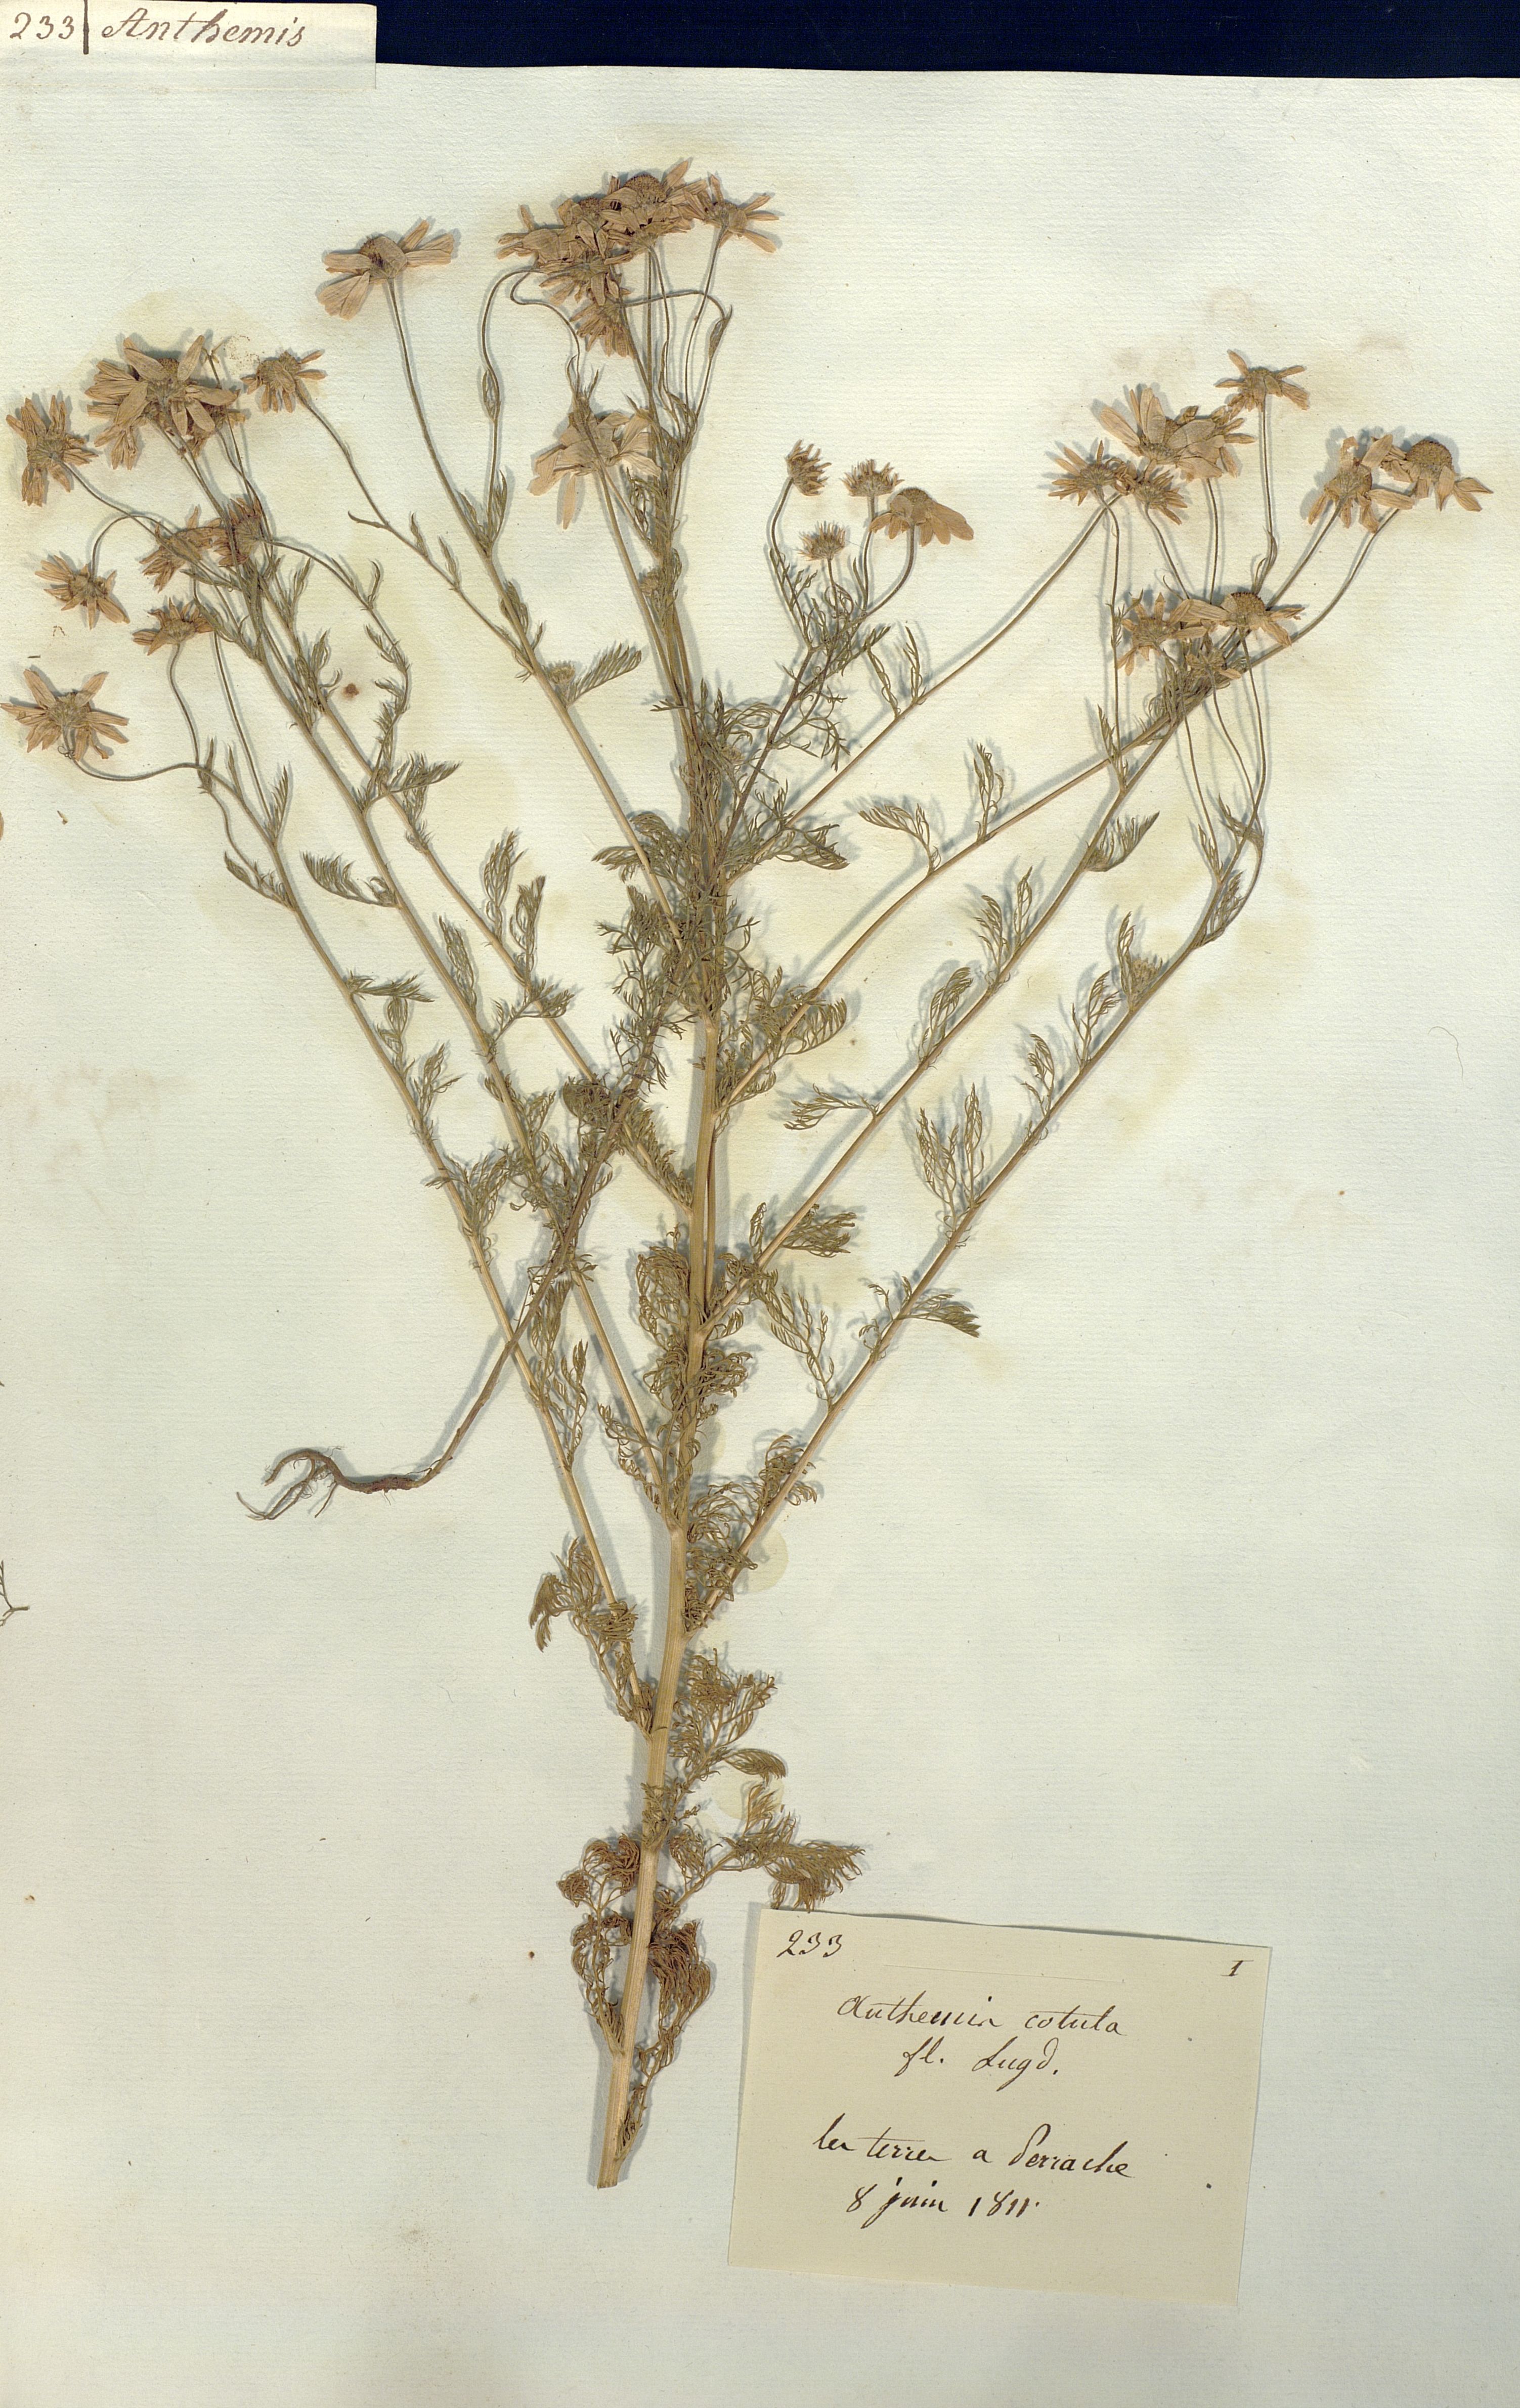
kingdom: Plantae
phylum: Tracheophyta
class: Magnoliopsida
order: Asterales
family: Asteraceae
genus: Anthemis
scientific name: Anthemis cotula
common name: Stinking chamomile
